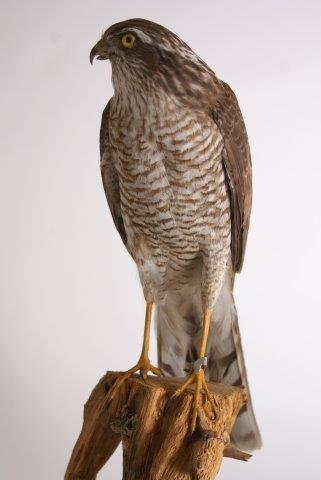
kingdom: Animalia
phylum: Chordata
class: Aves
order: Accipitriformes
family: Accipitridae
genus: Accipiter
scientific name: Accipiter nisus
